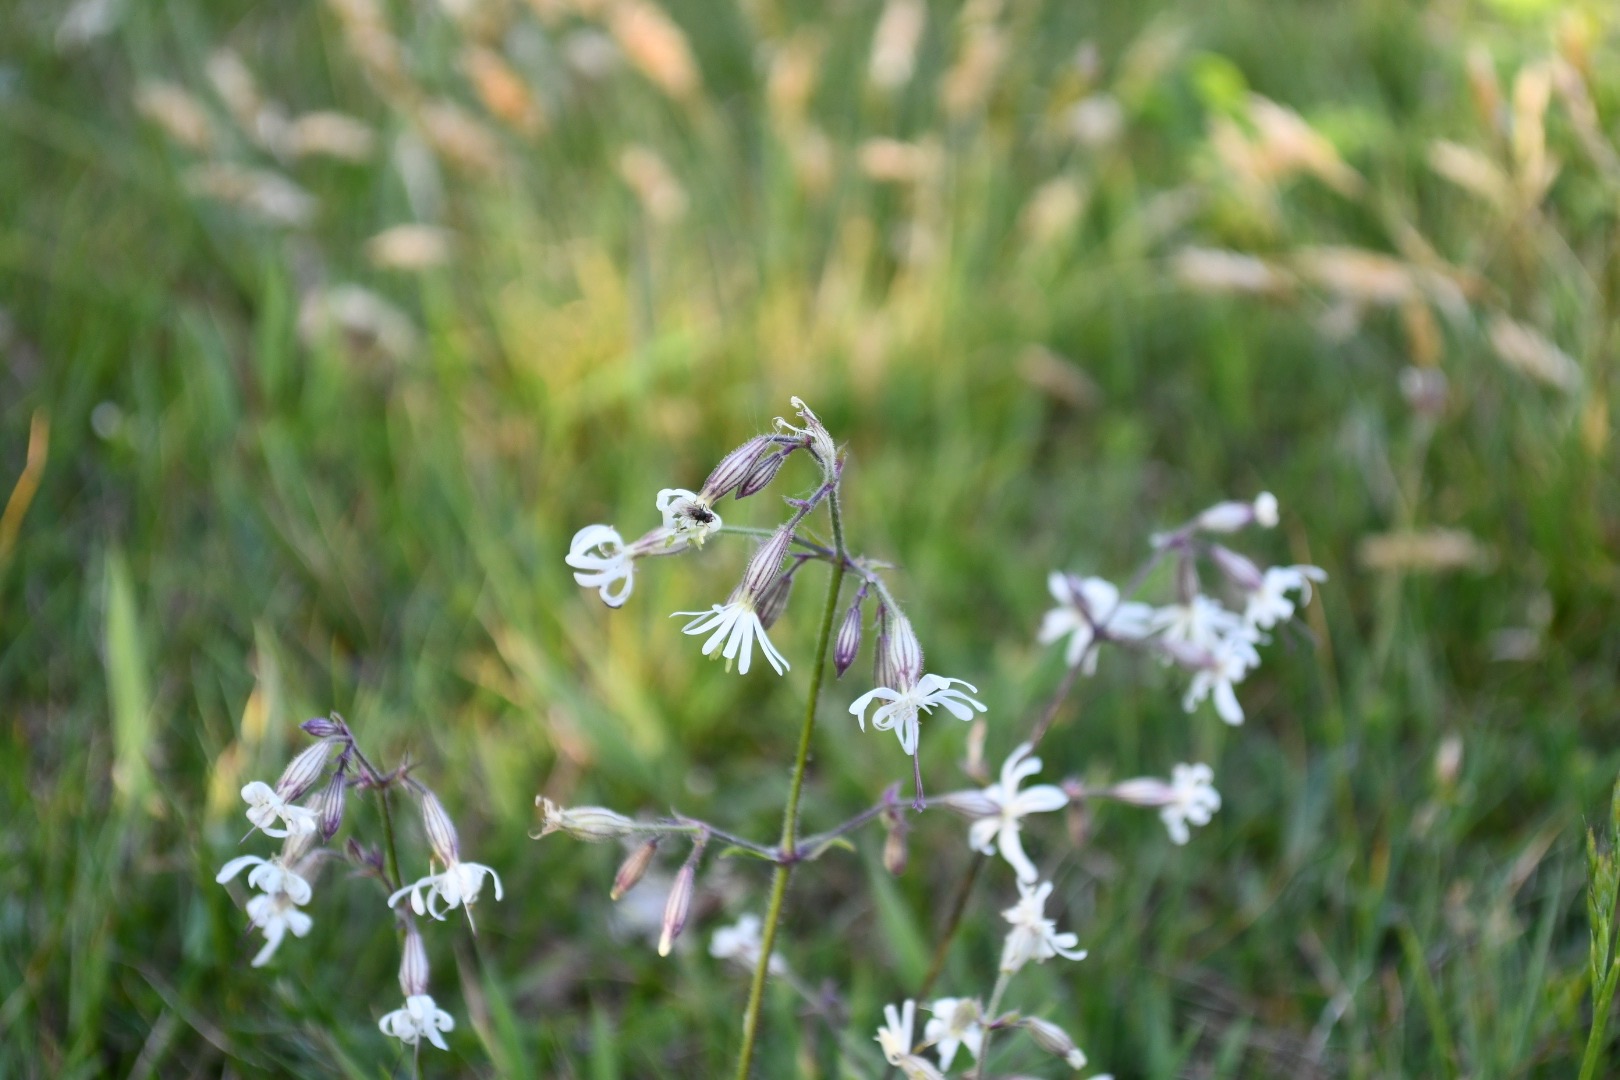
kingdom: Plantae
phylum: Tracheophyta
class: Magnoliopsida
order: Caryophyllales
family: Caryophyllaceae
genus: Silene
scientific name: Silene nutans
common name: Nikkende limurt
